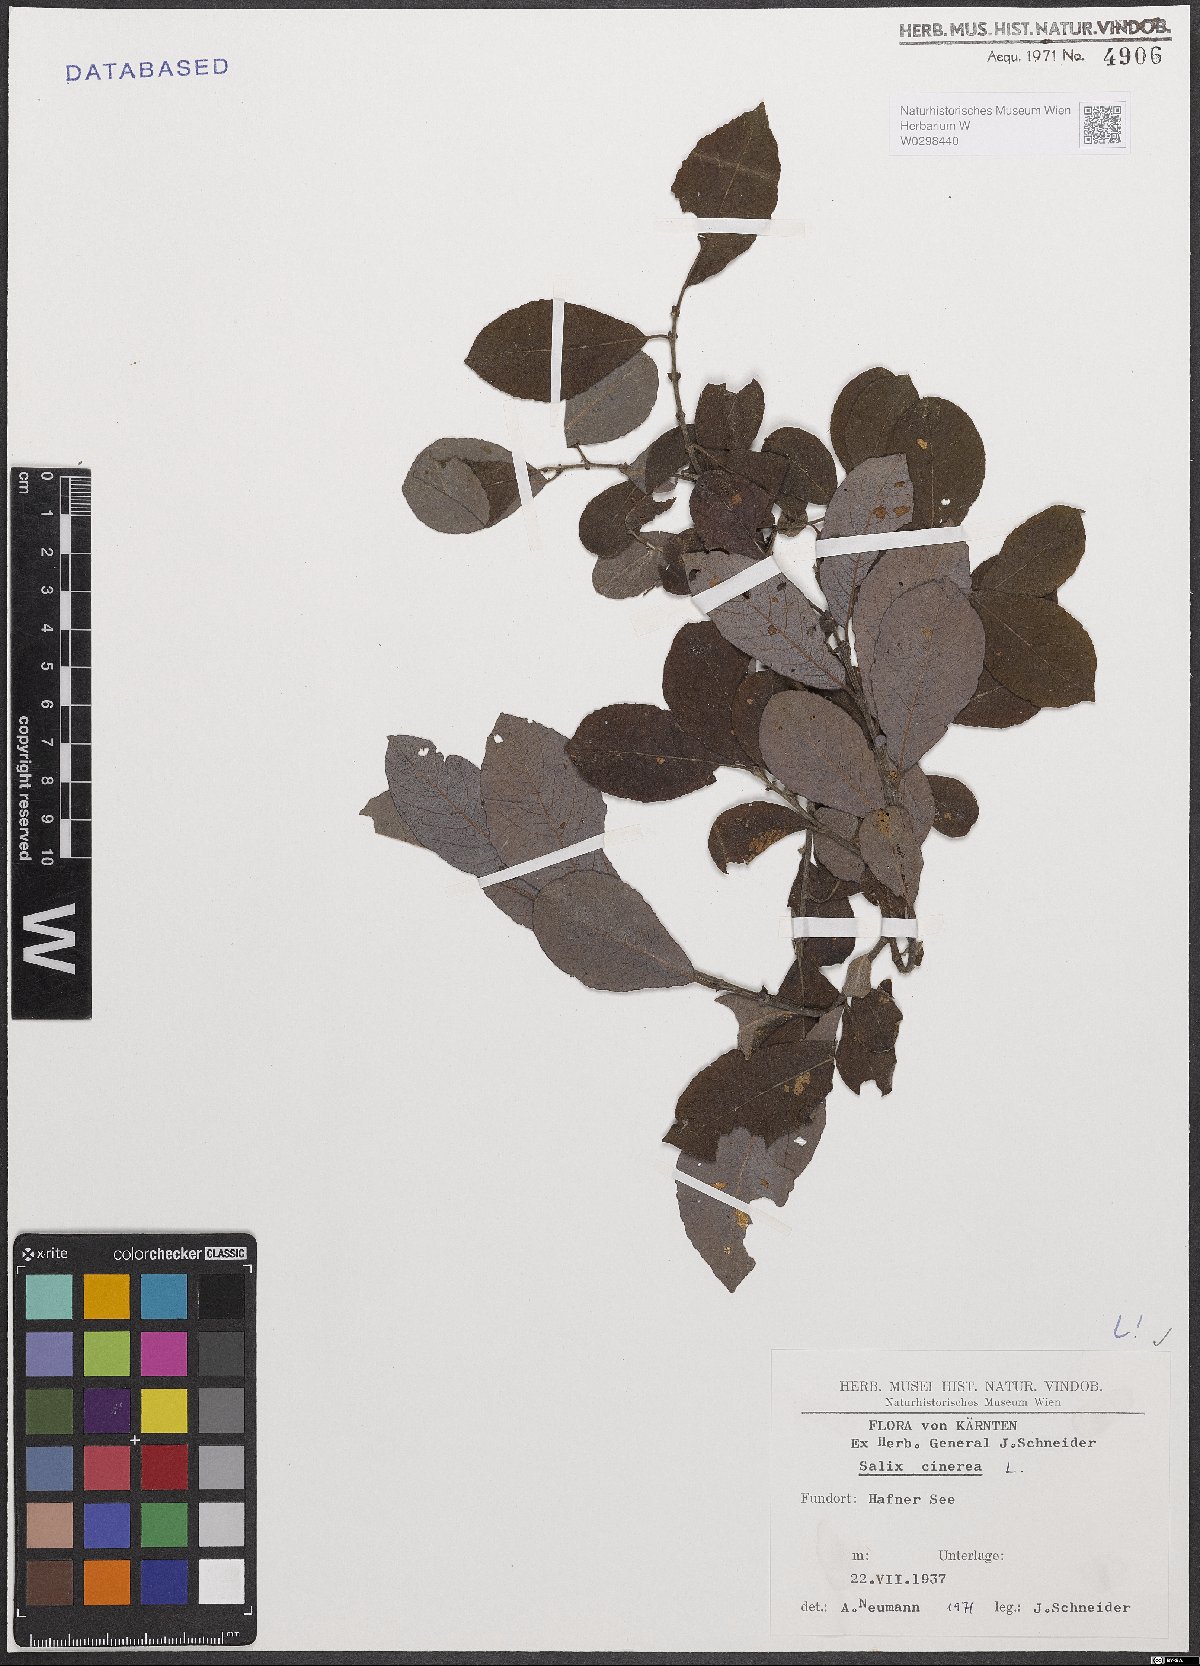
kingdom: Plantae
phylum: Tracheophyta
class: Magnoliopsida
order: Malpighiales
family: Salicaceae
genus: Salix
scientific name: Salix cinerea
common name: Common sallow
